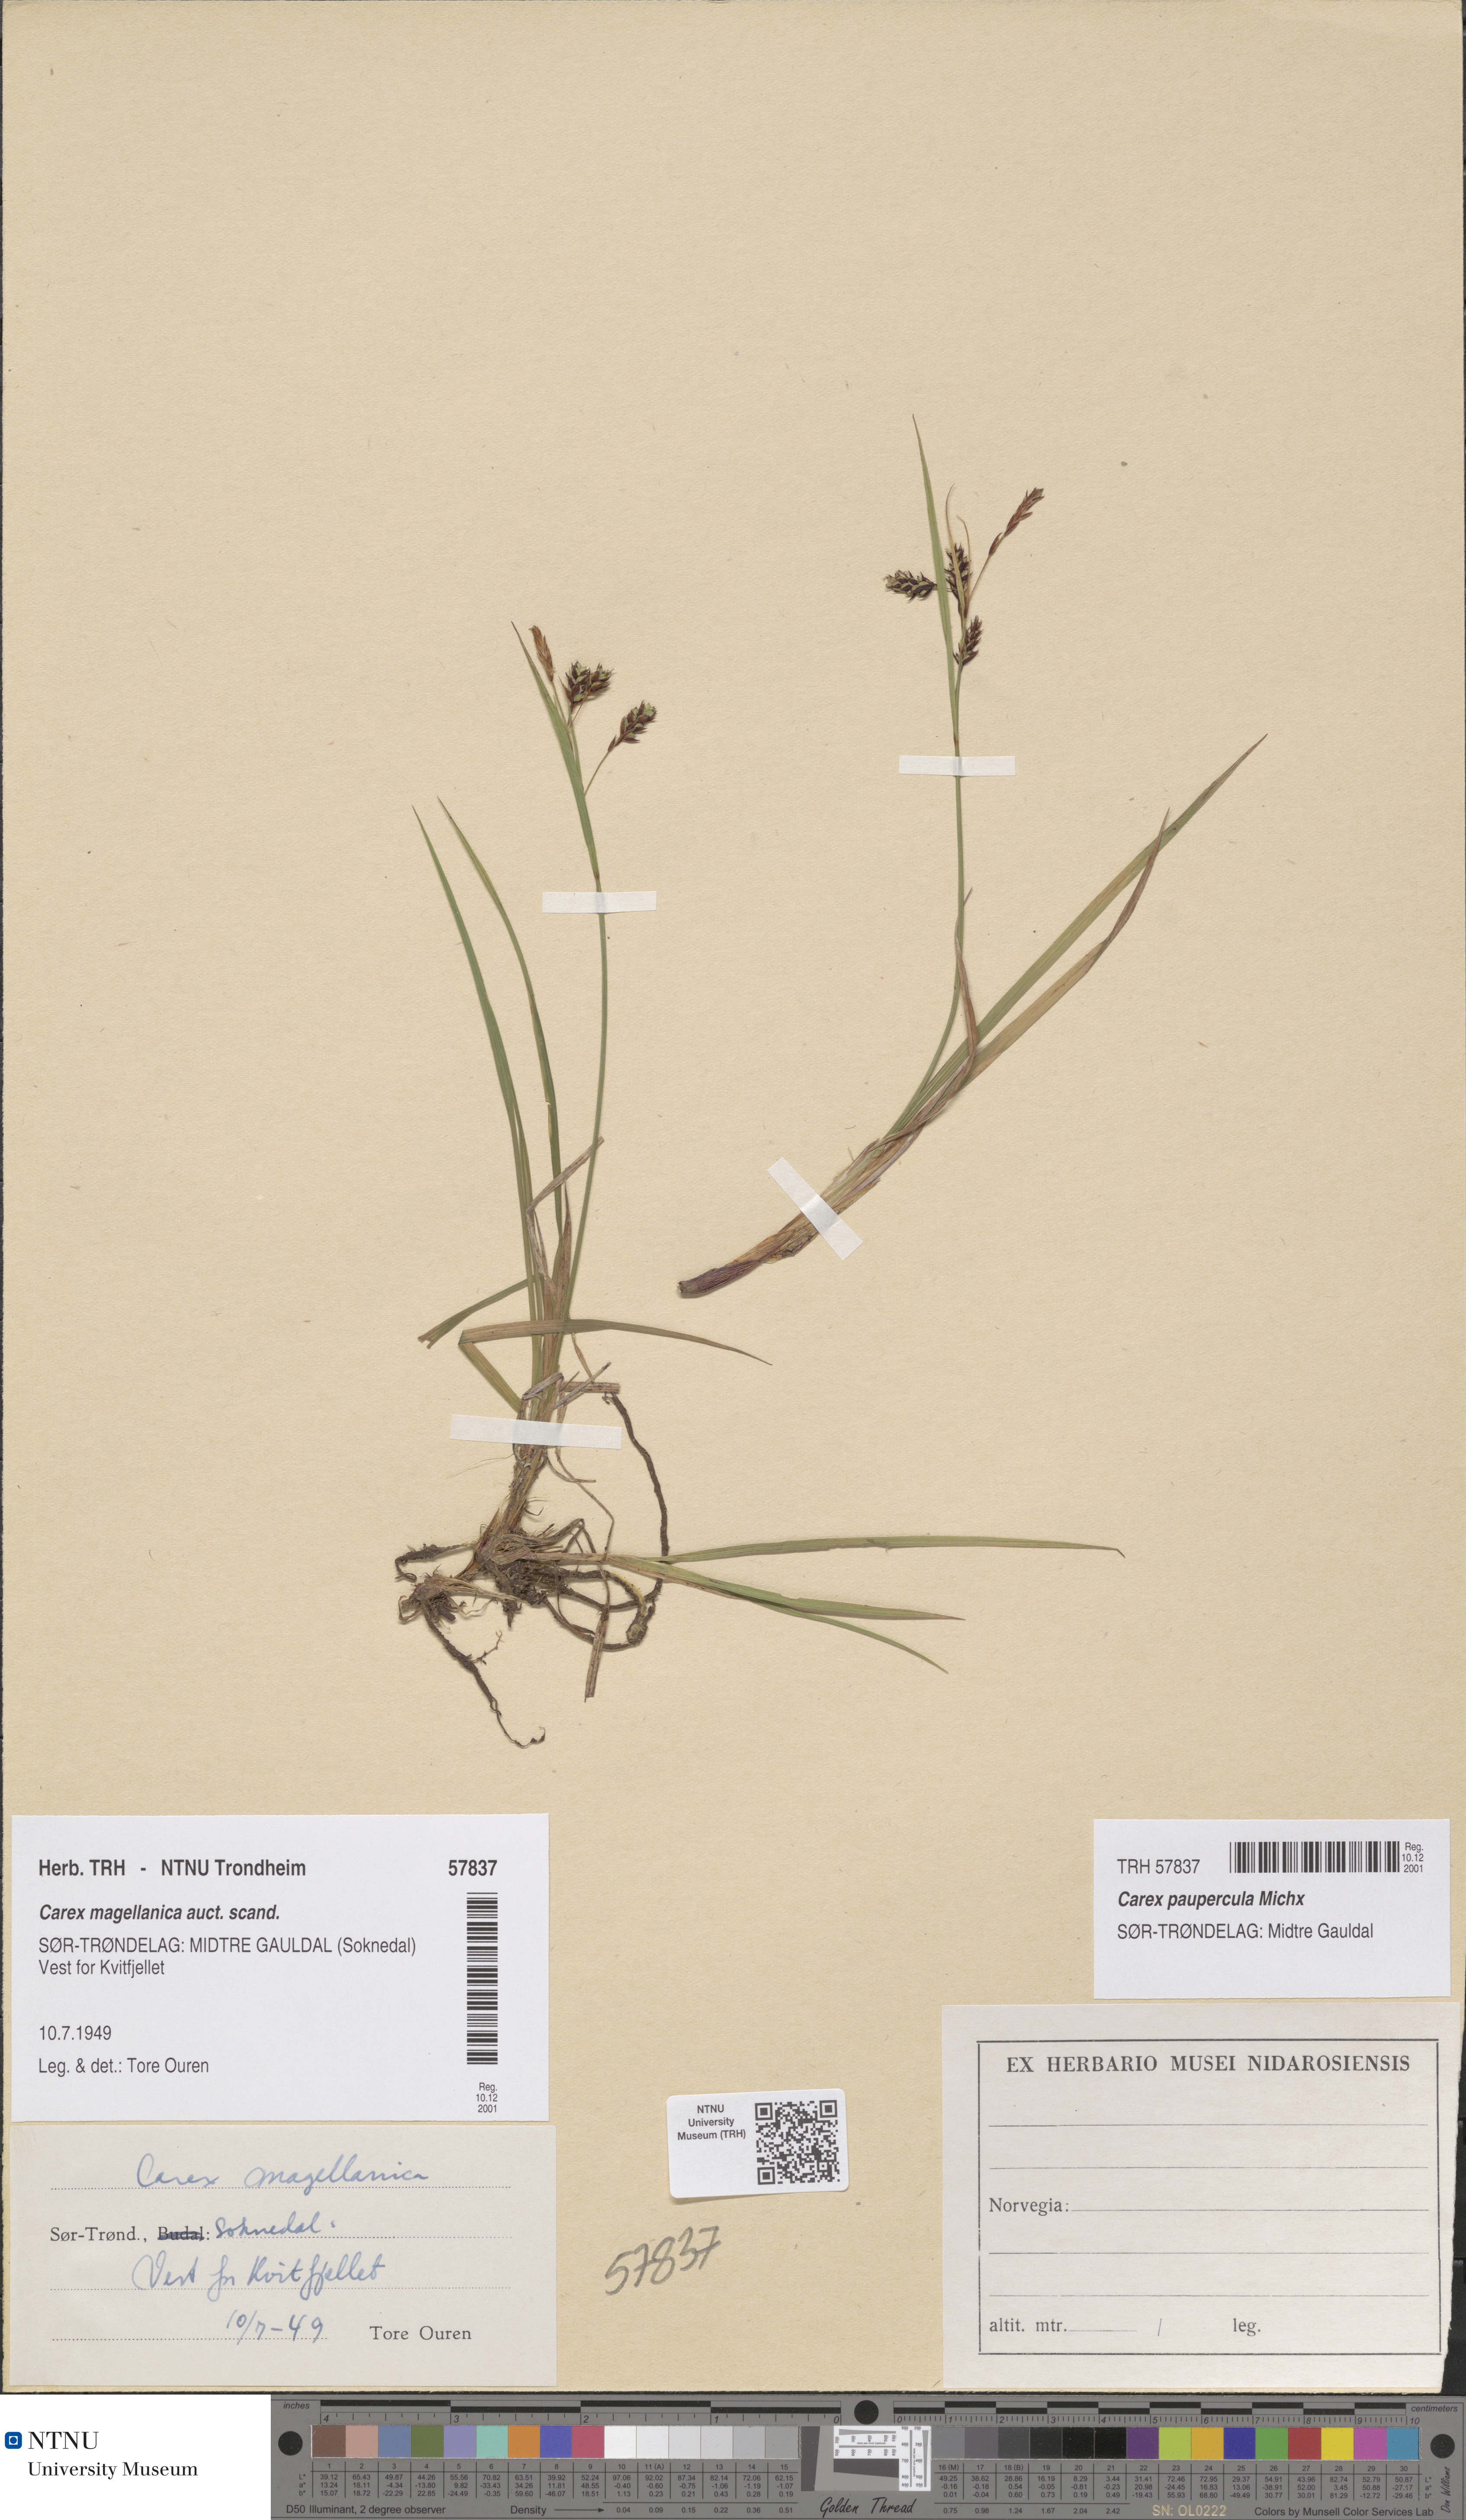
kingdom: Plantae
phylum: Tracheophyta
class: Liliopsida
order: Poales
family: Cyperaceae
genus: Carex
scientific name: Carex magellanica
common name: Bog sedge
